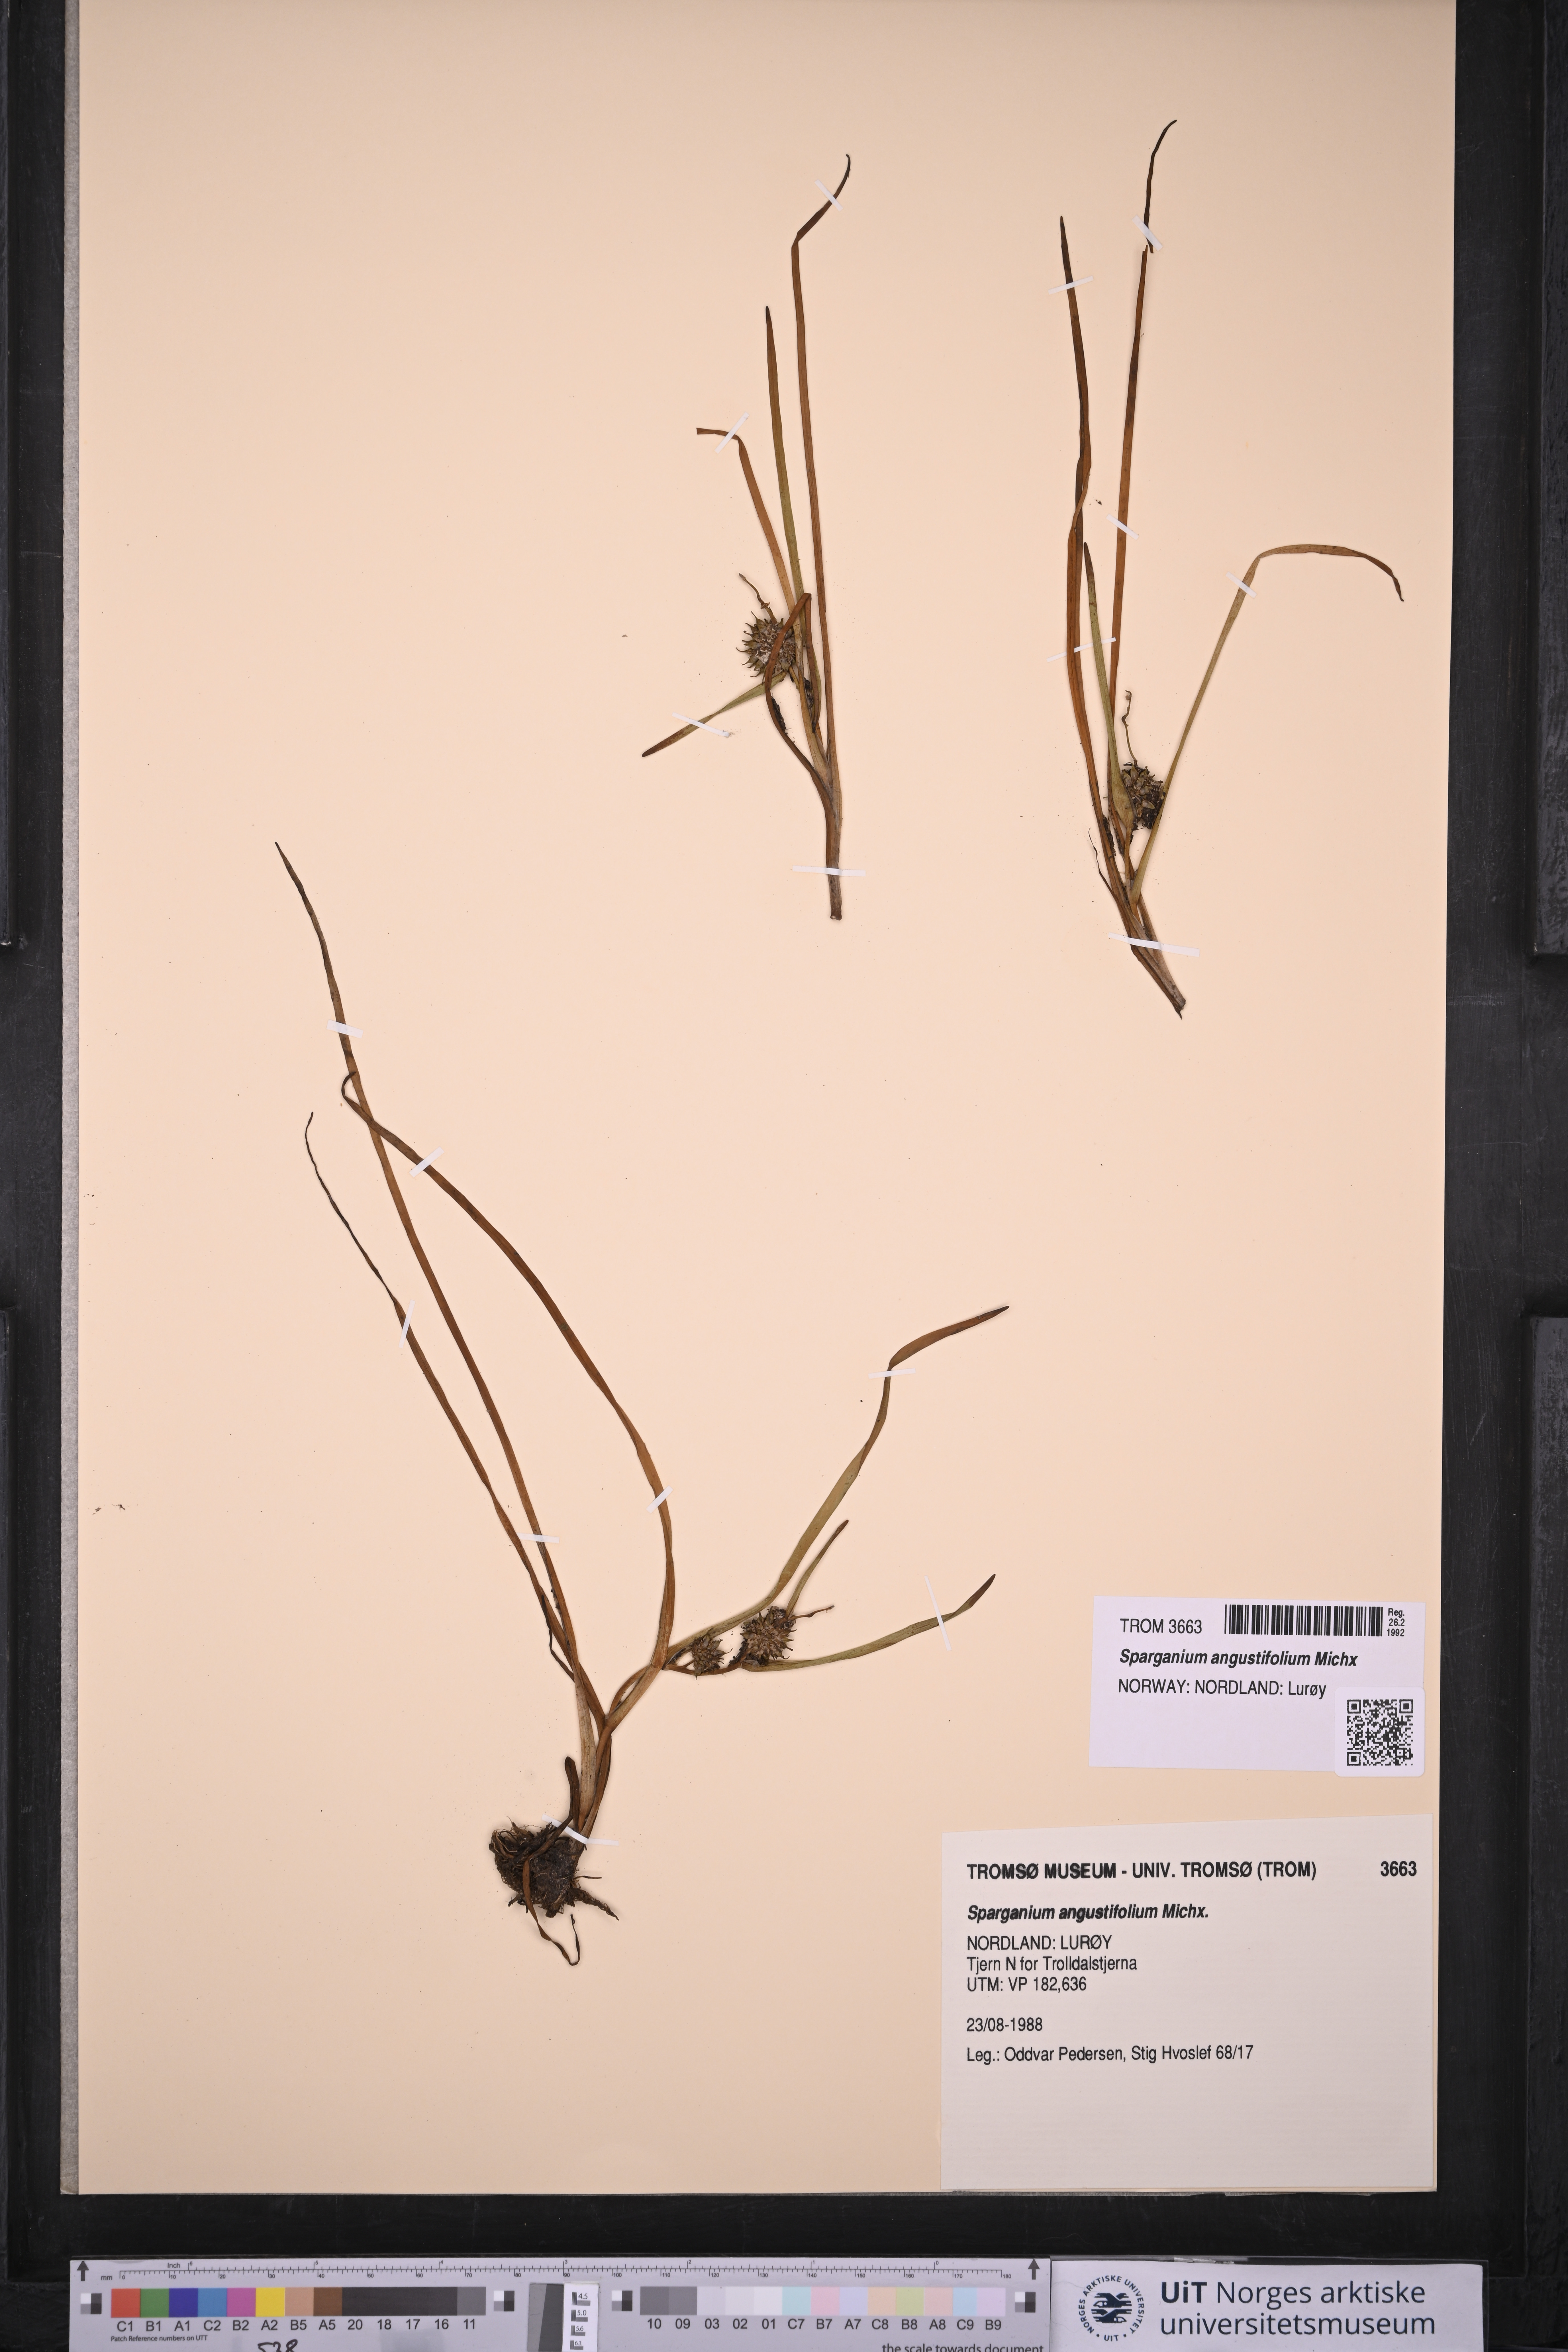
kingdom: Plantae
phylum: Tracheophyta
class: Liliopsida
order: Poales
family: Typhaceae
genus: Sparganium
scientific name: Sparganium angustifolium
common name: Floating bur-reed
